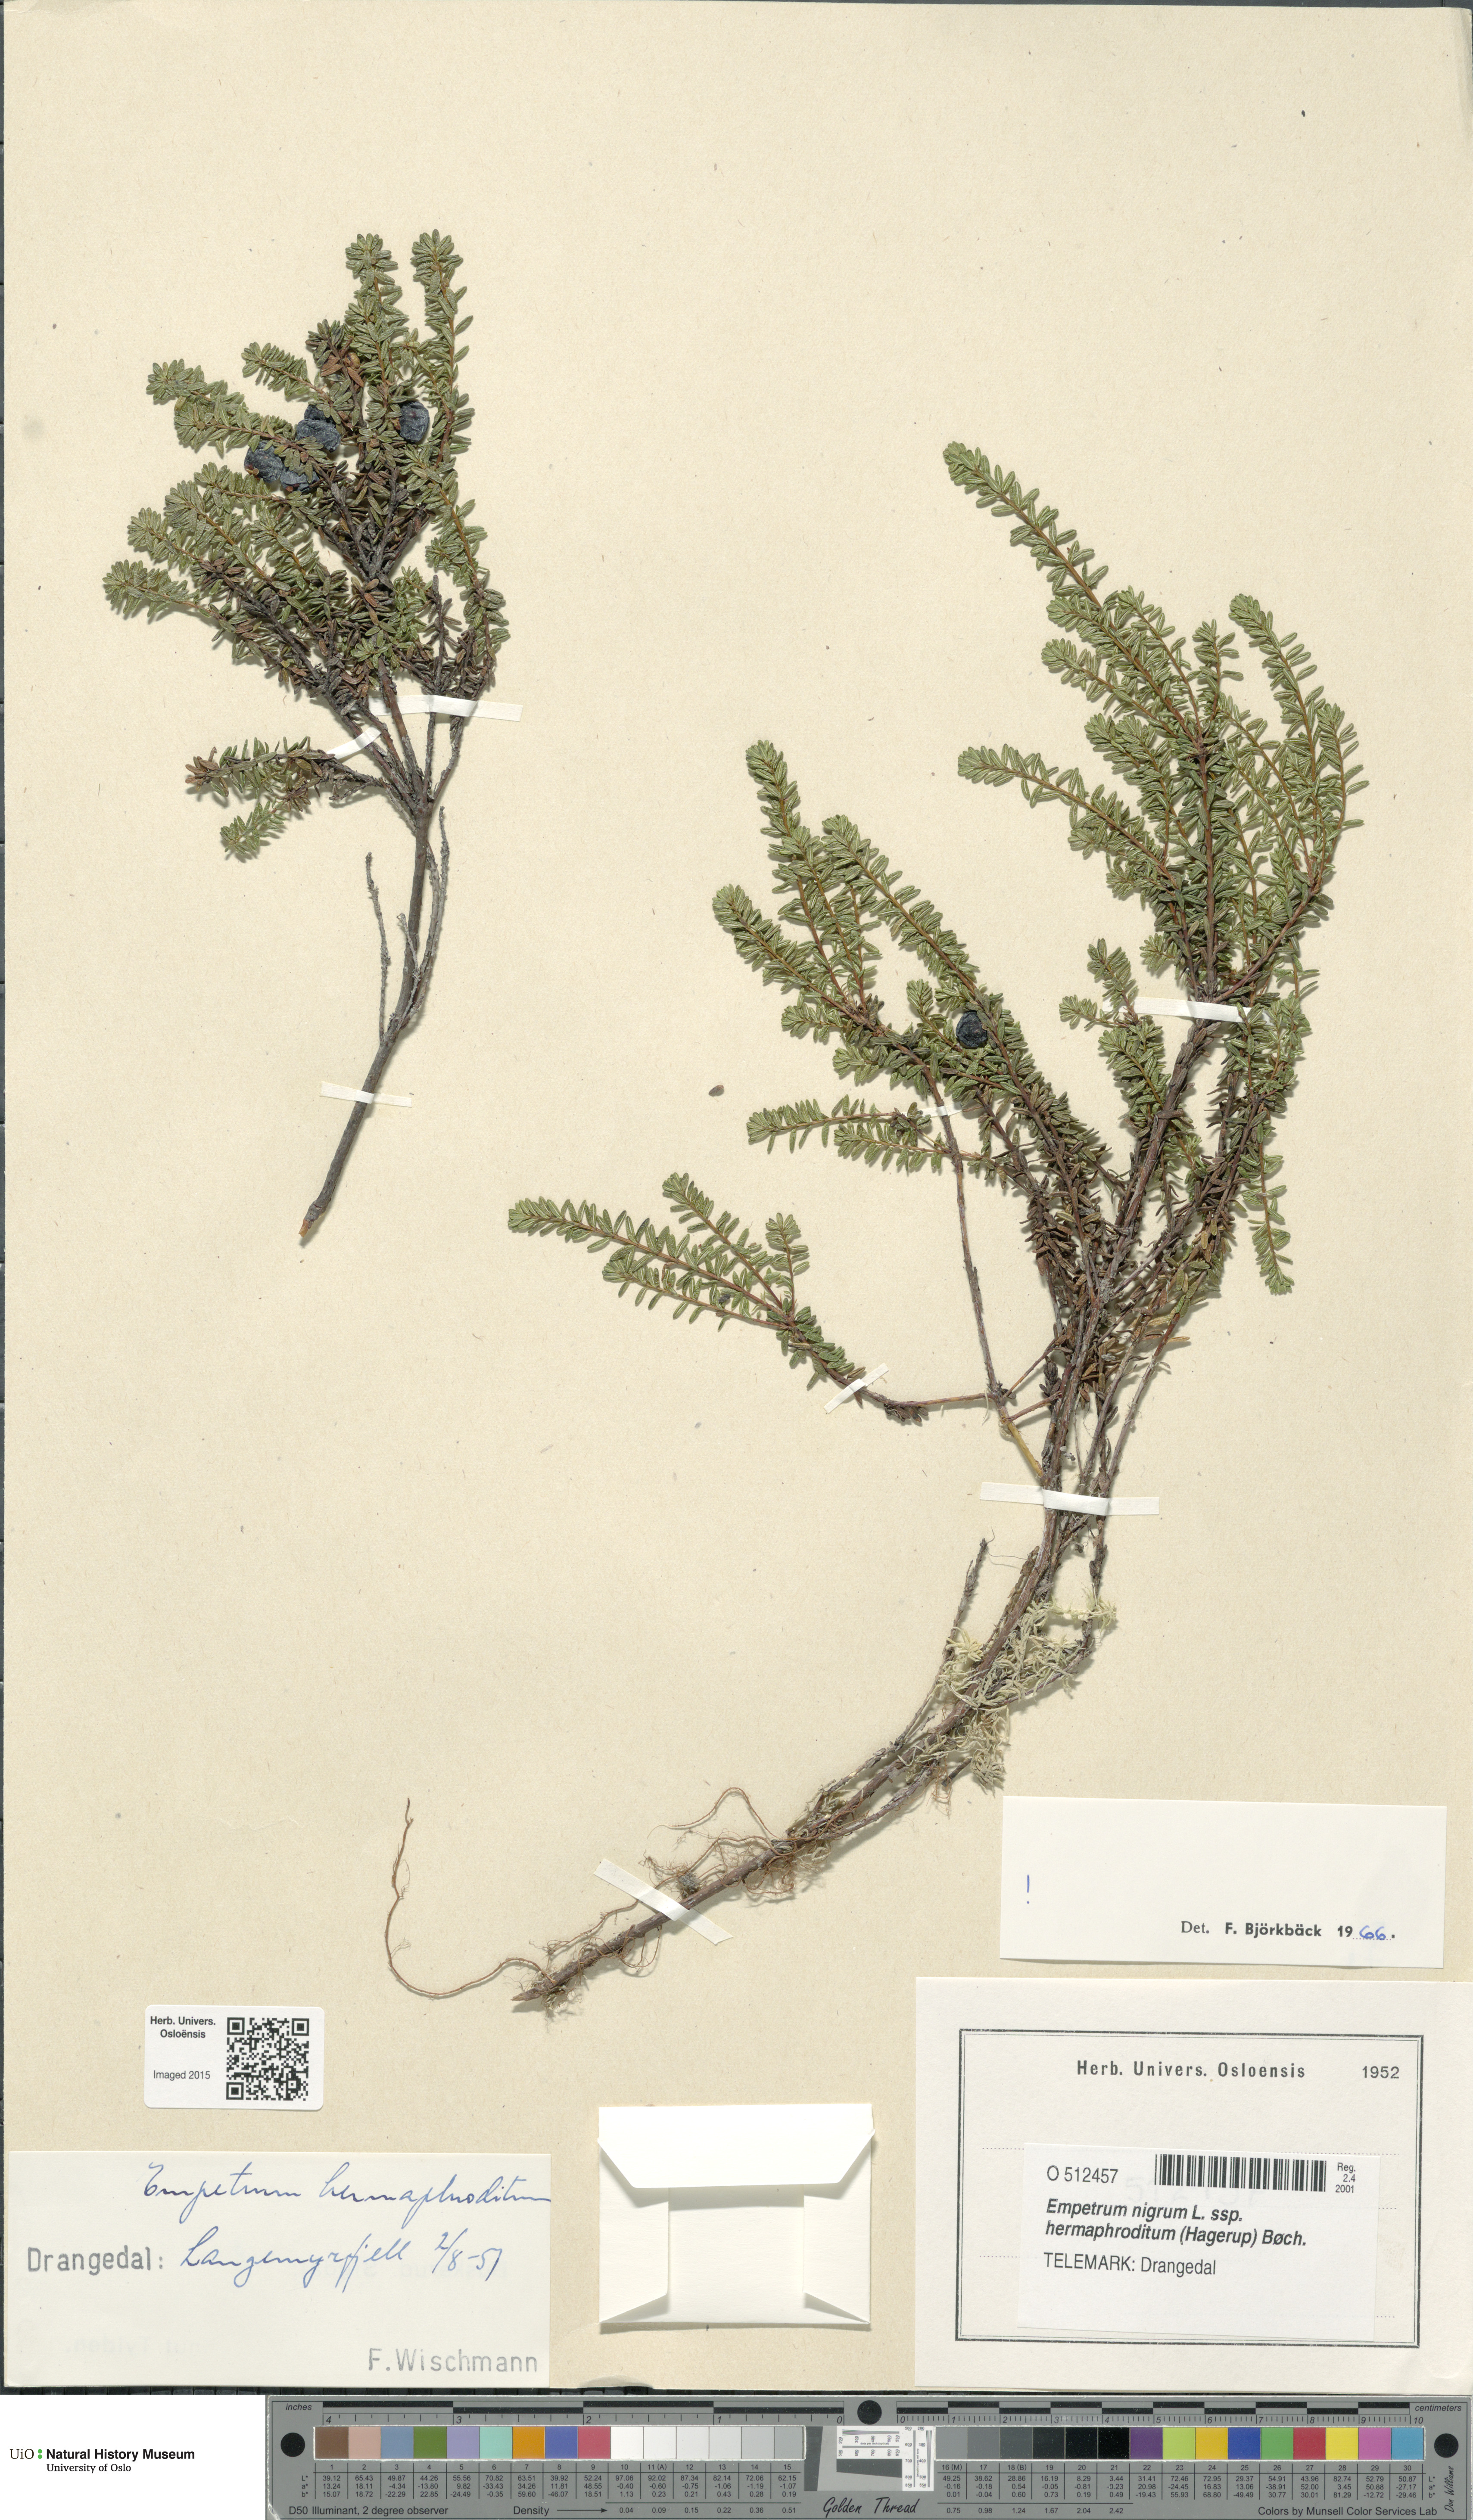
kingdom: Plantae
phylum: Tracheophyta
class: Magnoliopsida
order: Ericales
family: Ericaceae
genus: Empetrum
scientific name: Empetrum hermaphroditum
